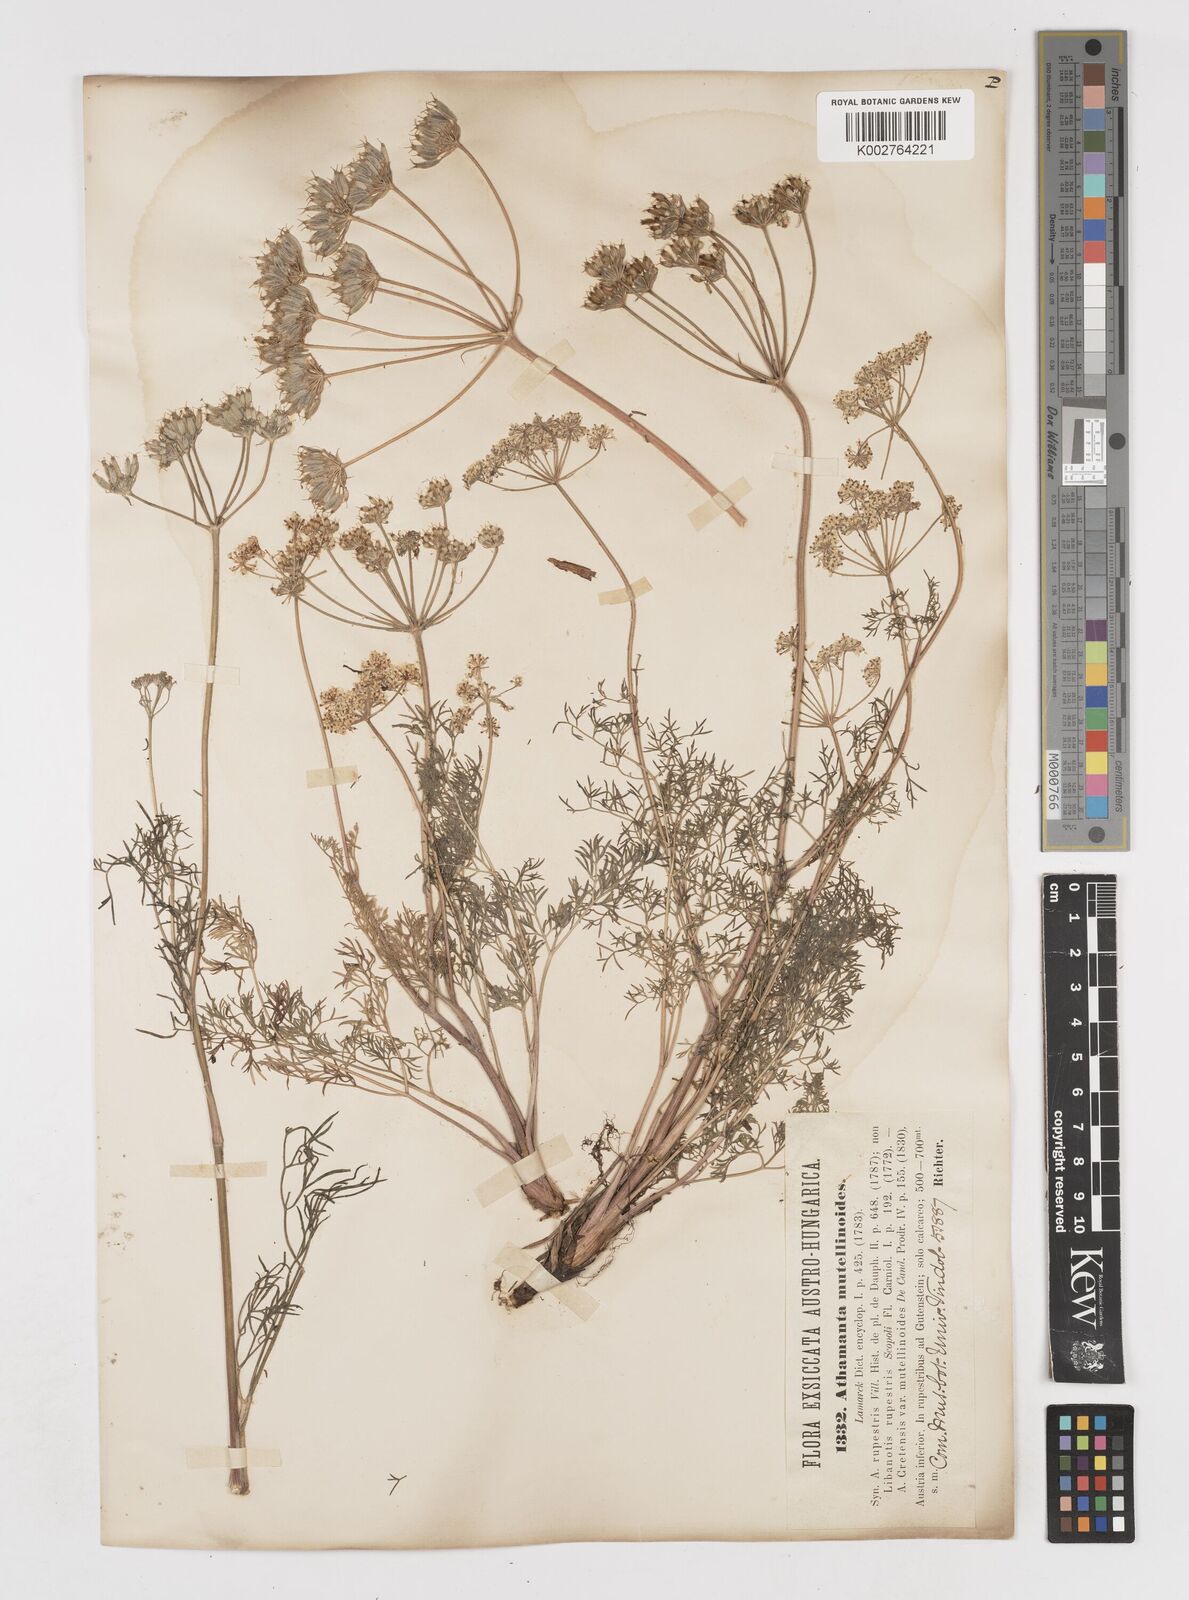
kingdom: Plantae
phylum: Tracheophyta
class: Magnoliopsida
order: Apiales
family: Apiaceae
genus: Athamanta
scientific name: Athamanta cretensis
